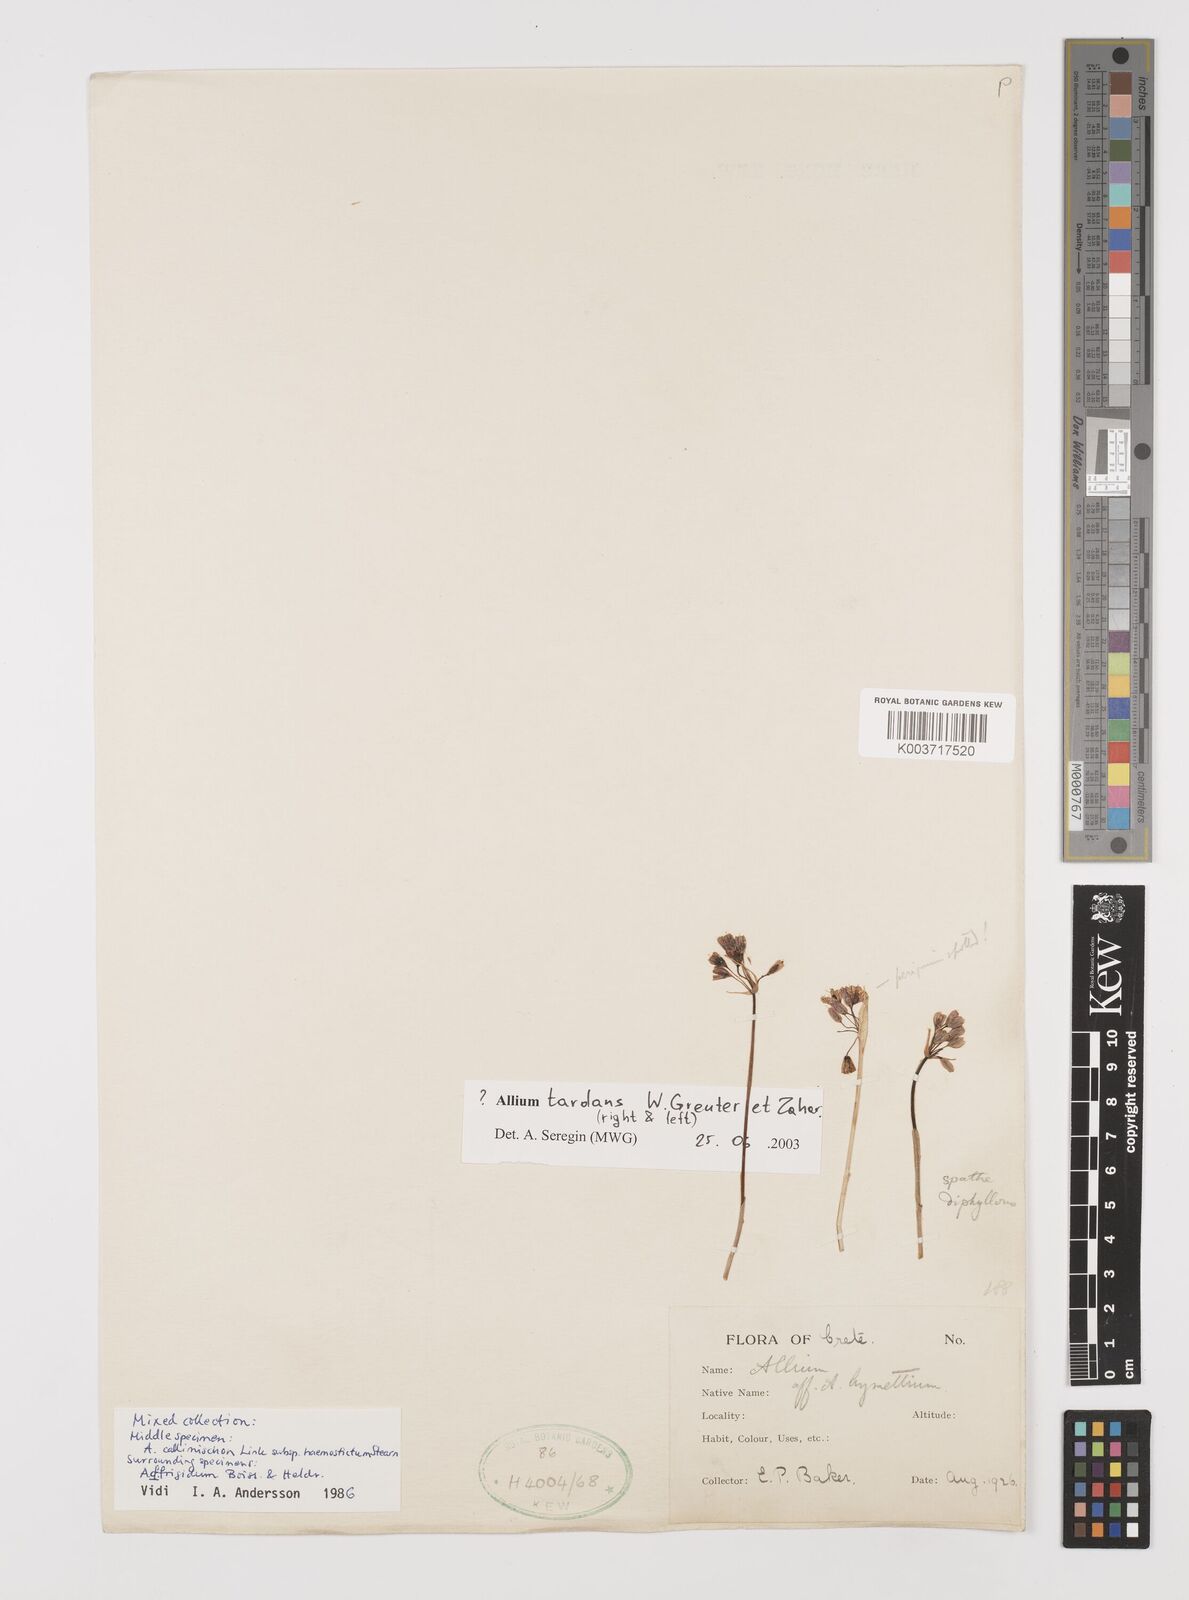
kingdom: Plantae
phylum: Tracheophyta
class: Liliopsida
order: Asparagales
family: Amaryllidaceae
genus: Allium
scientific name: Allium tardans
